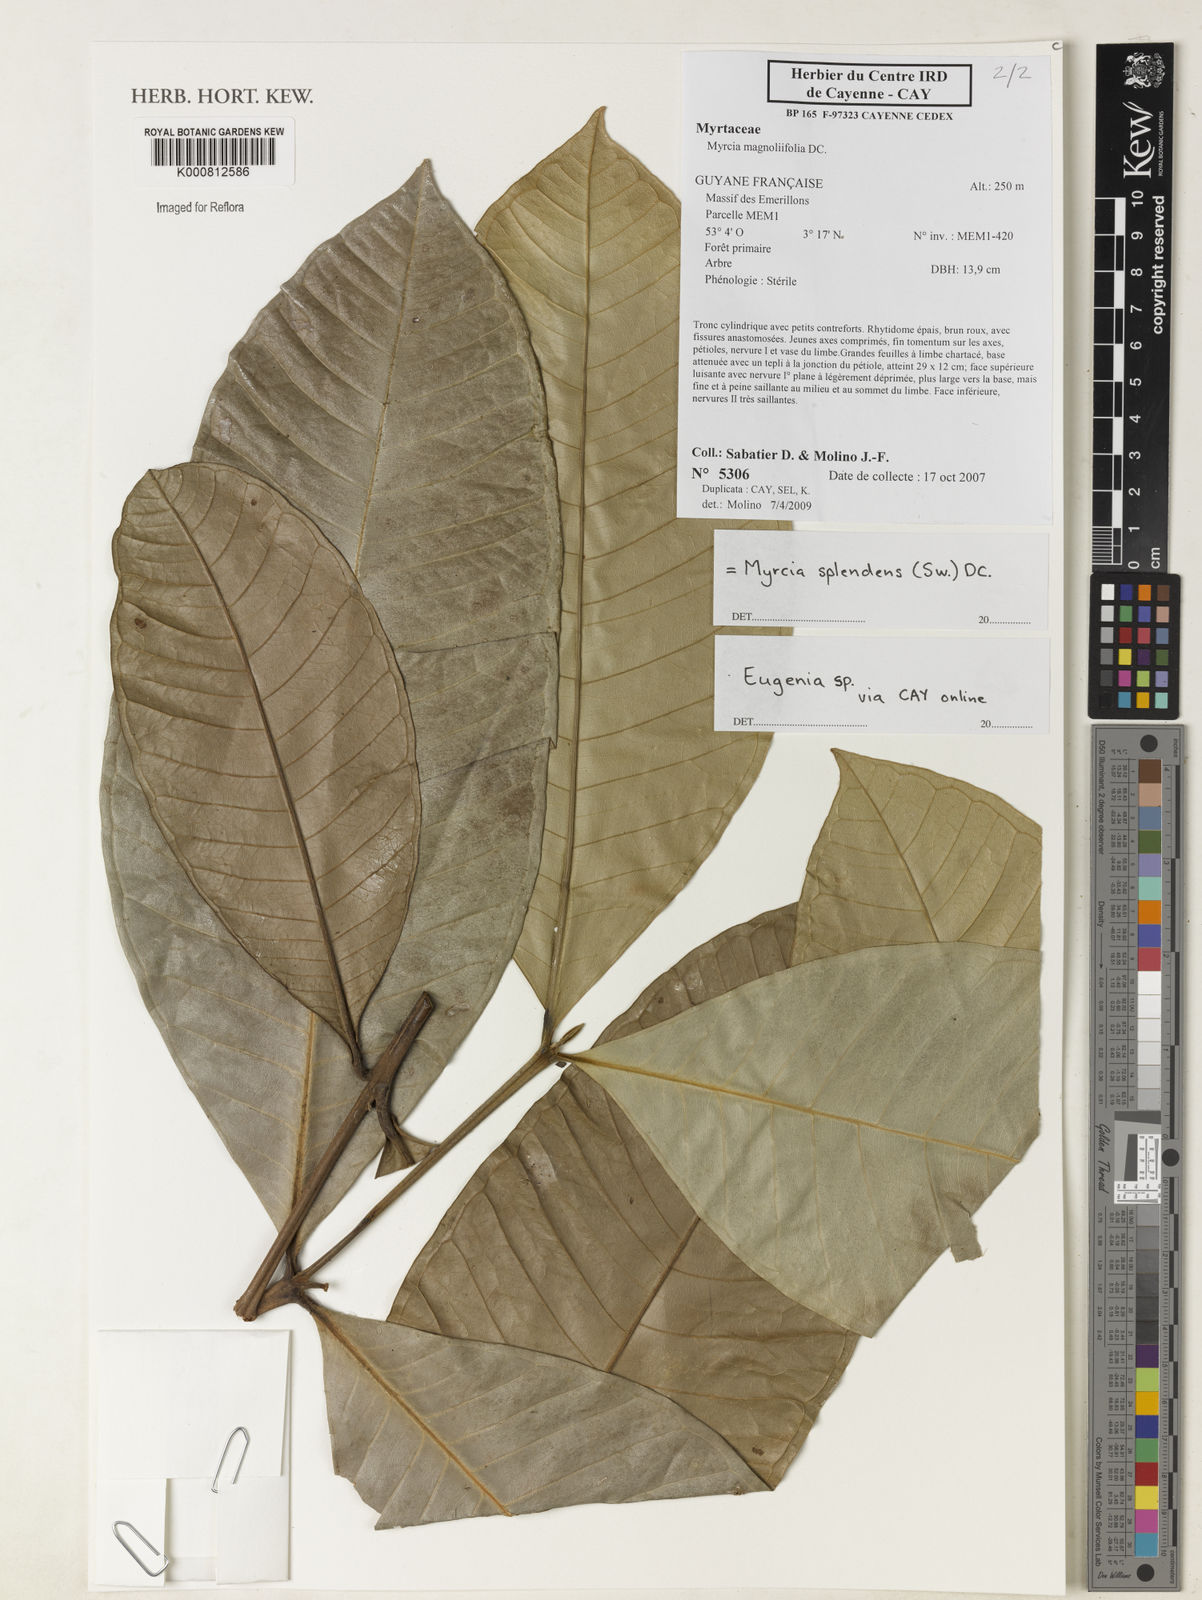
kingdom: Plantae
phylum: Tracheophyta
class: Magnoliopsida
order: Myrtales
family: Myrtaceae
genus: Eugenia
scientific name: Eugenia
